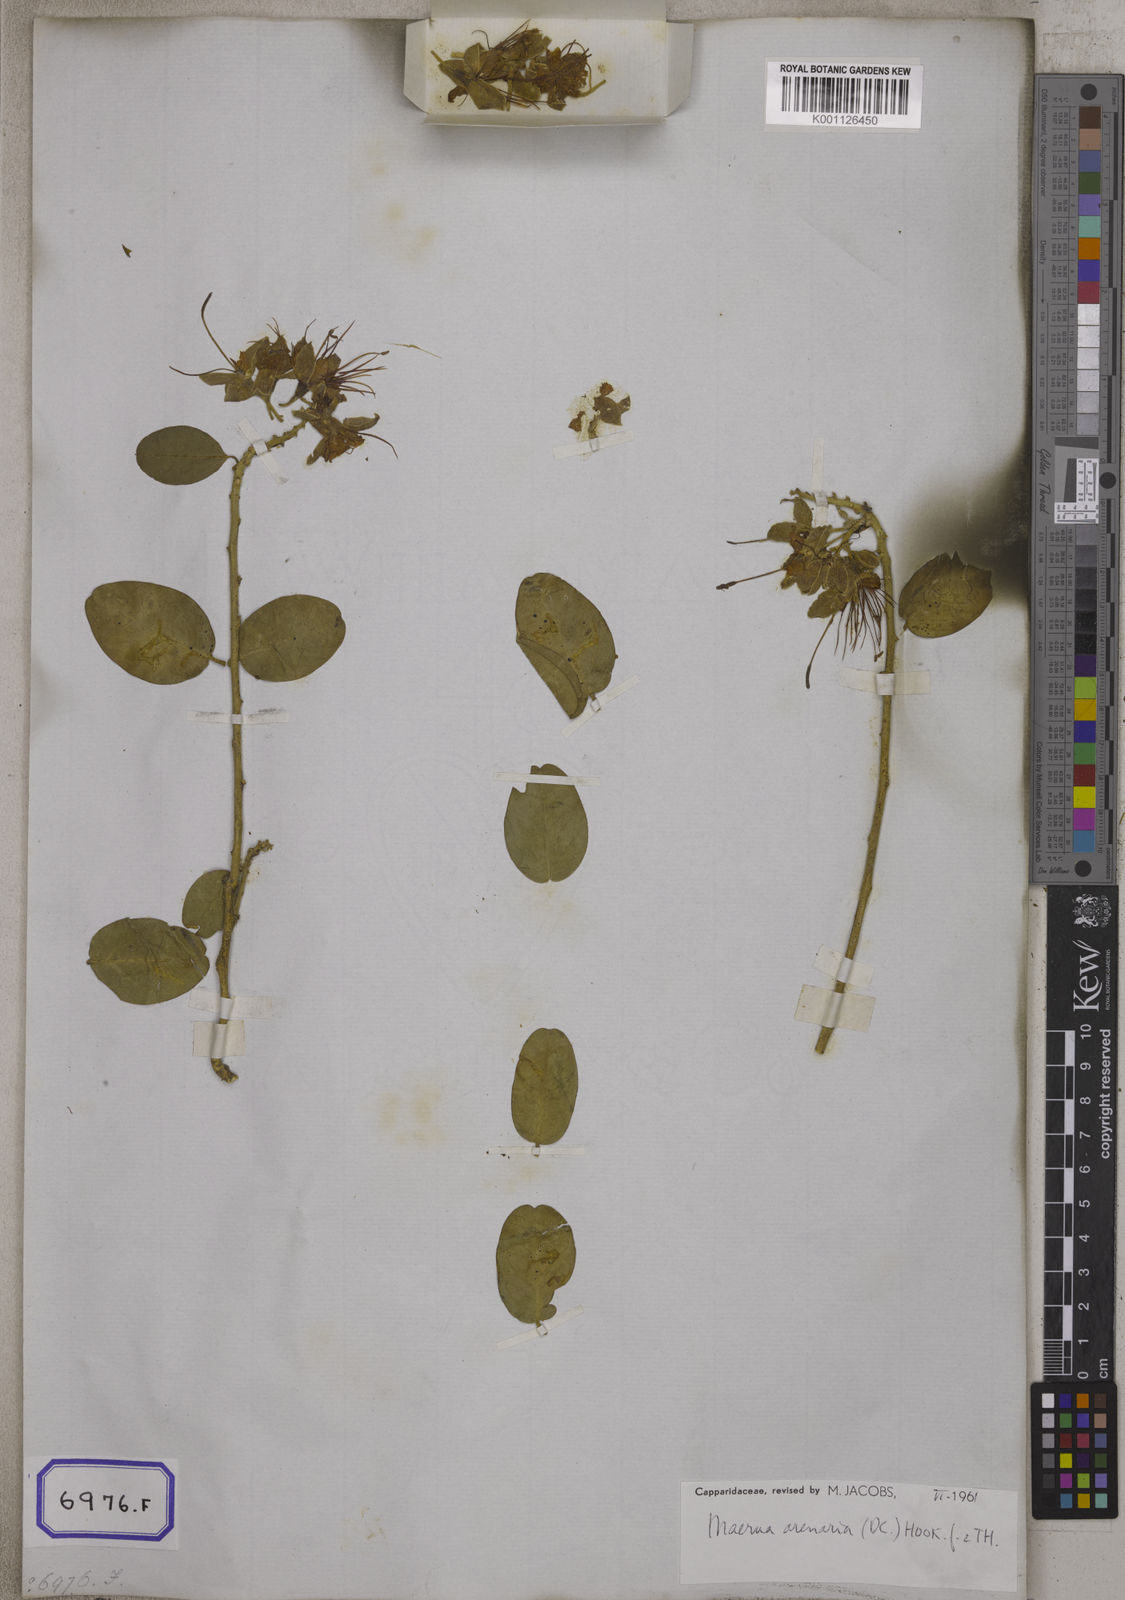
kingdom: Plantae
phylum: Tracheophyta
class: Magnoliopsida
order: Brassicales
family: Capparaceae
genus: Maerua
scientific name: Maerua oblongifolia
